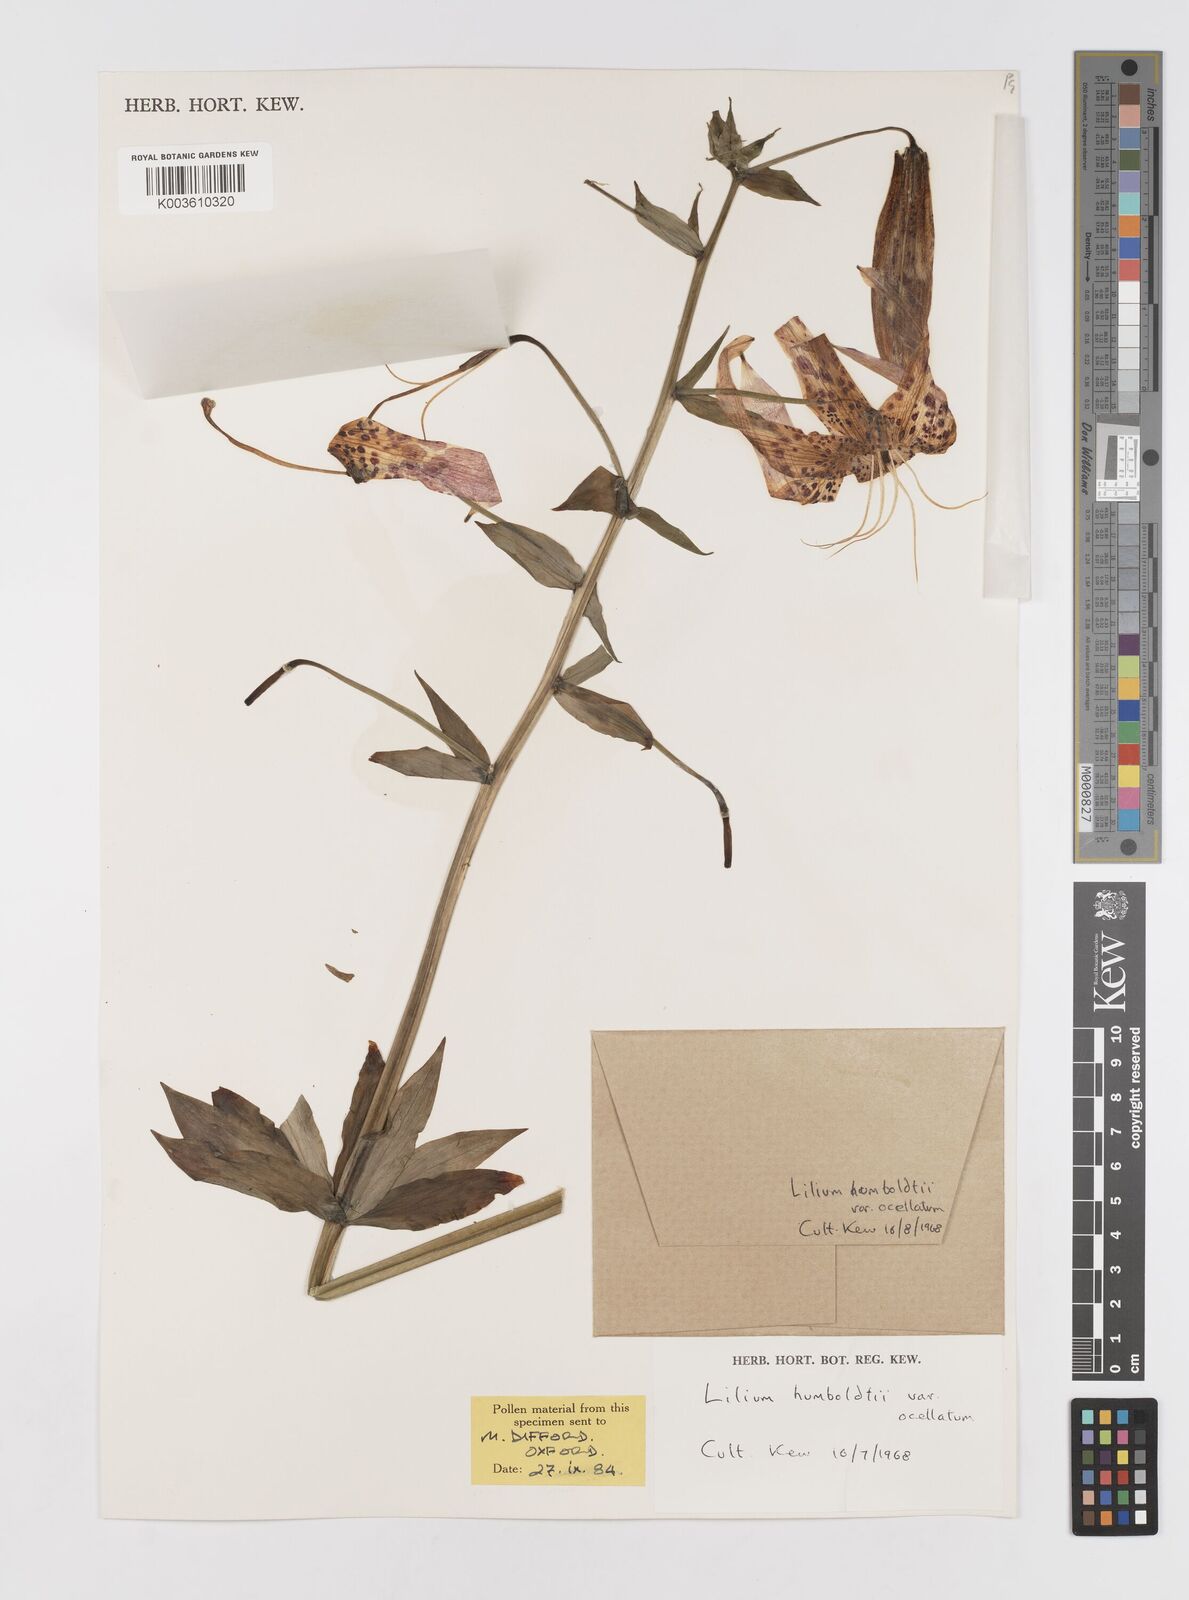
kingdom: Plantae
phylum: Tracheophyta
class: Liliopsida
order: Liliales
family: Liliaceae
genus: Lilium
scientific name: Lilium humboldtii
